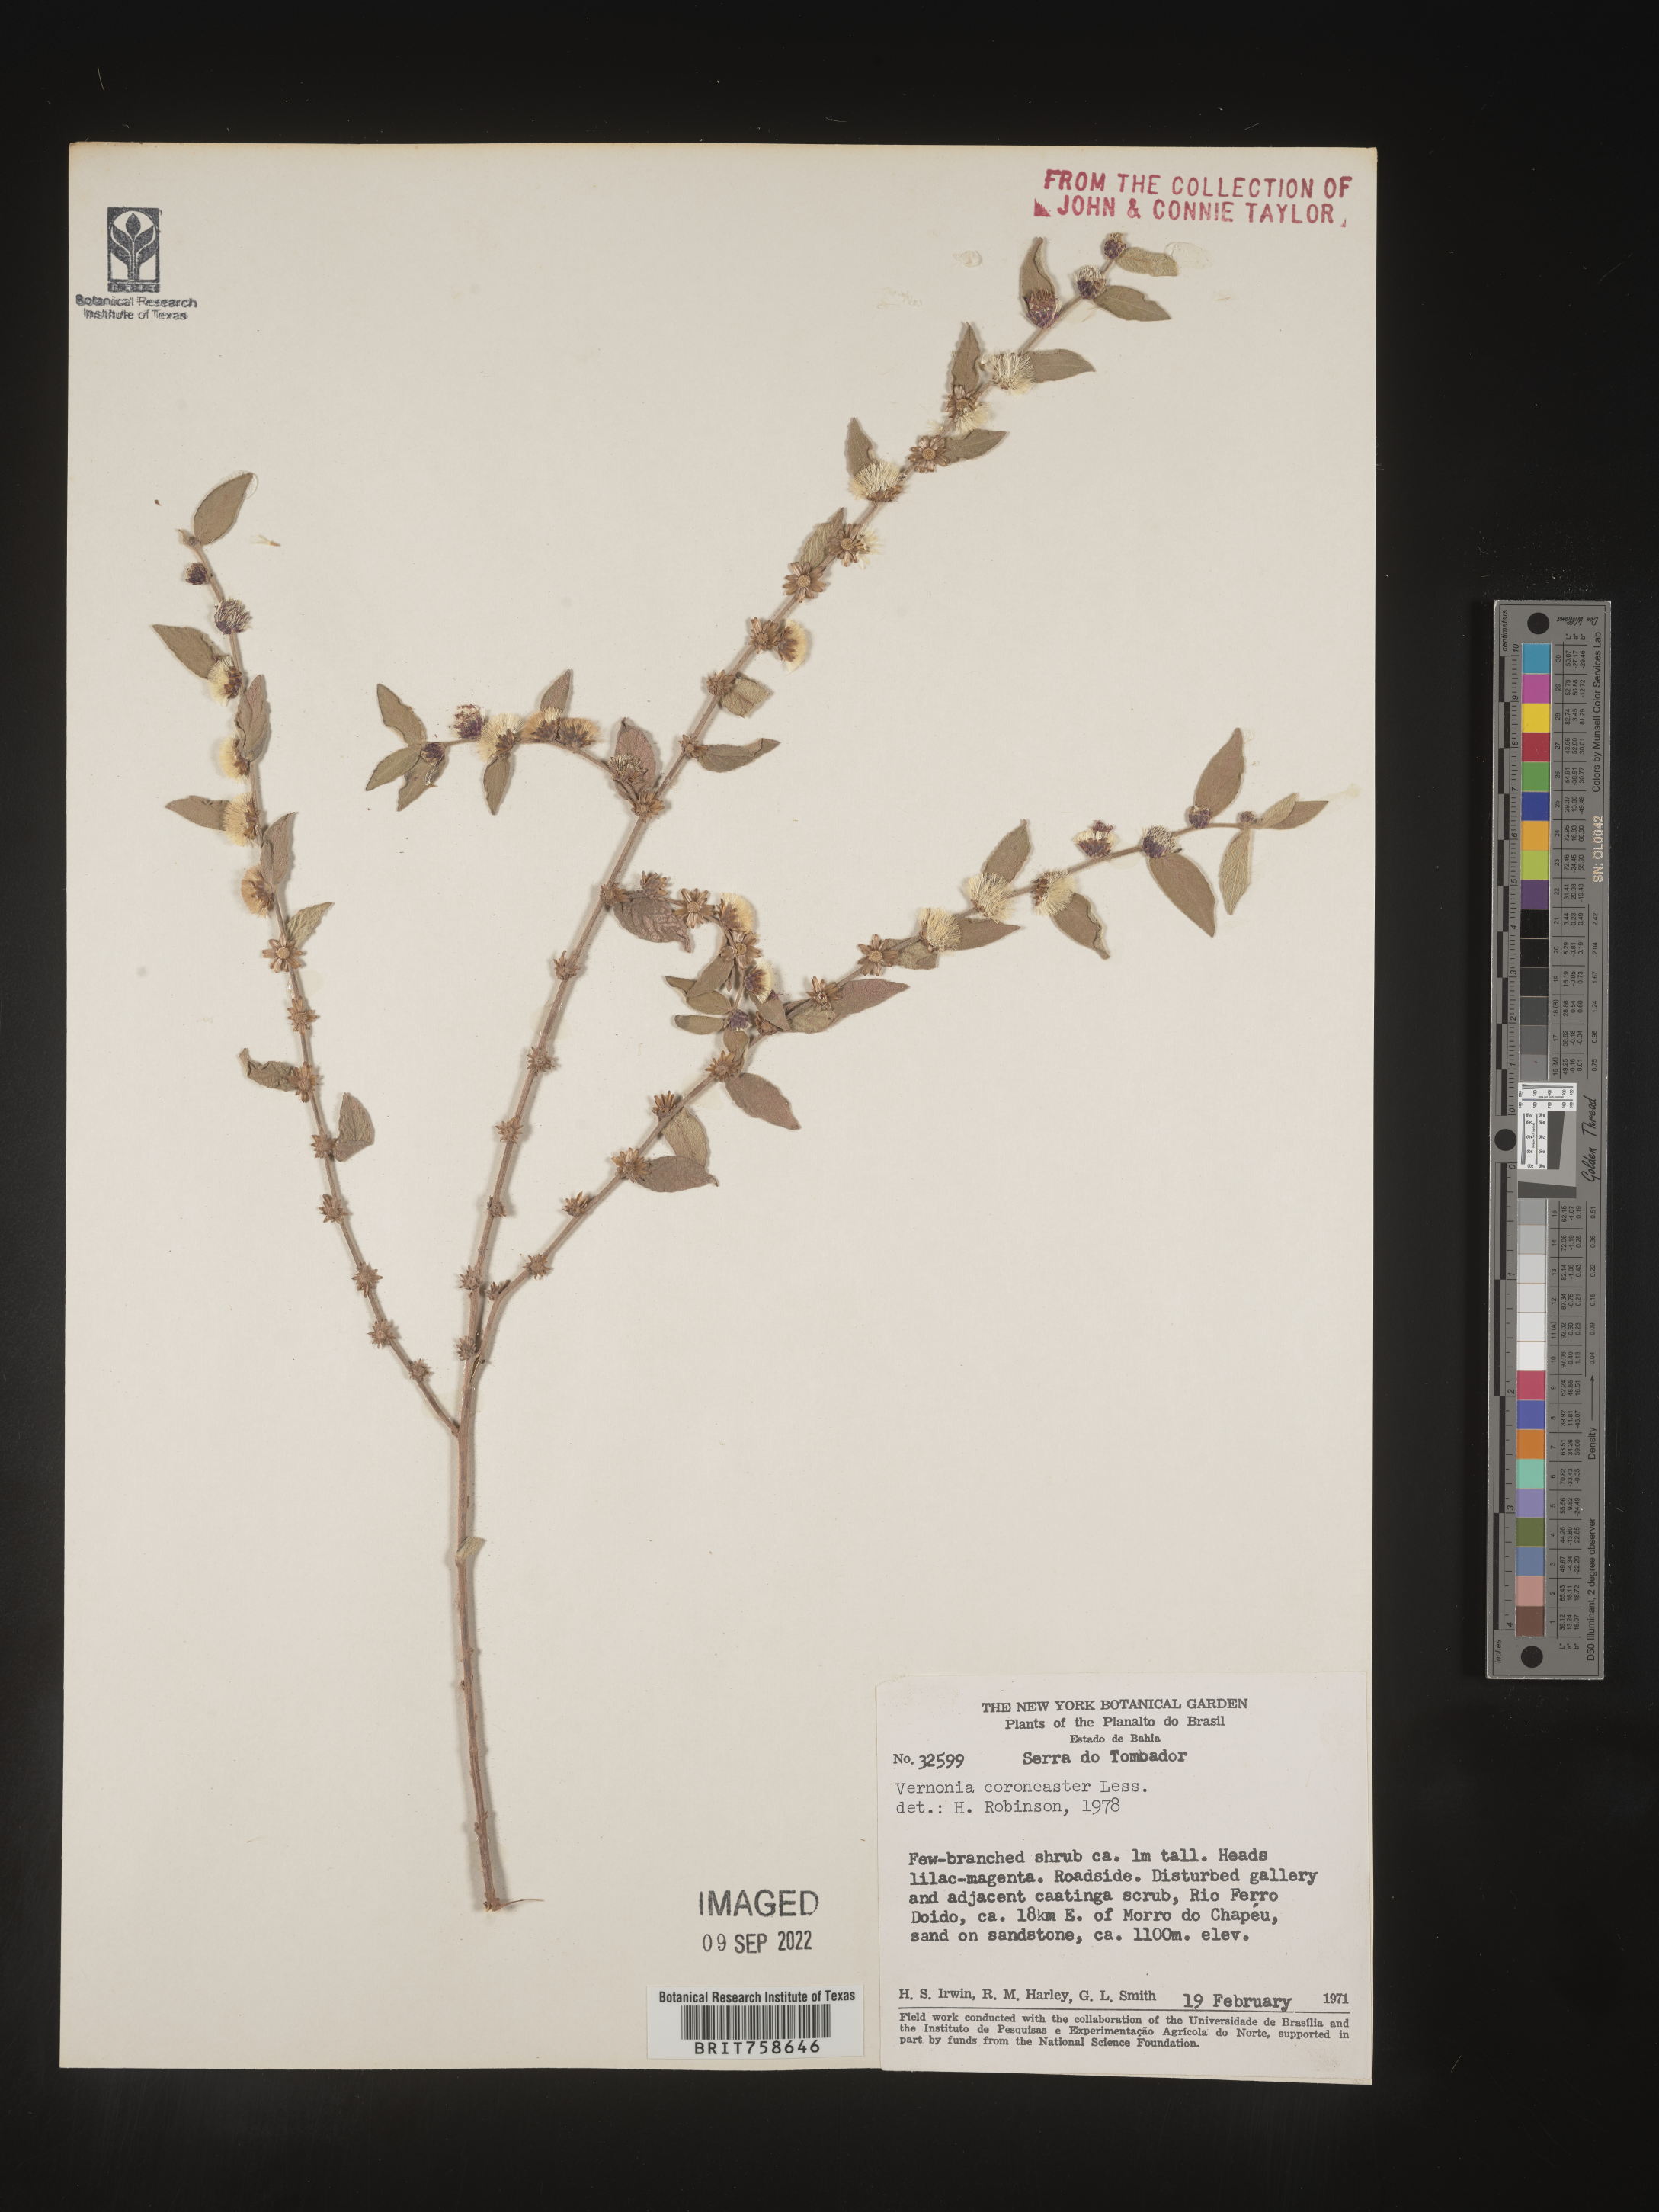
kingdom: Plantae
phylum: Tracheophyta
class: Magnoliopsida
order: Asterales
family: Asteraceae
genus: Vernonia
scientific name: Vernonia
